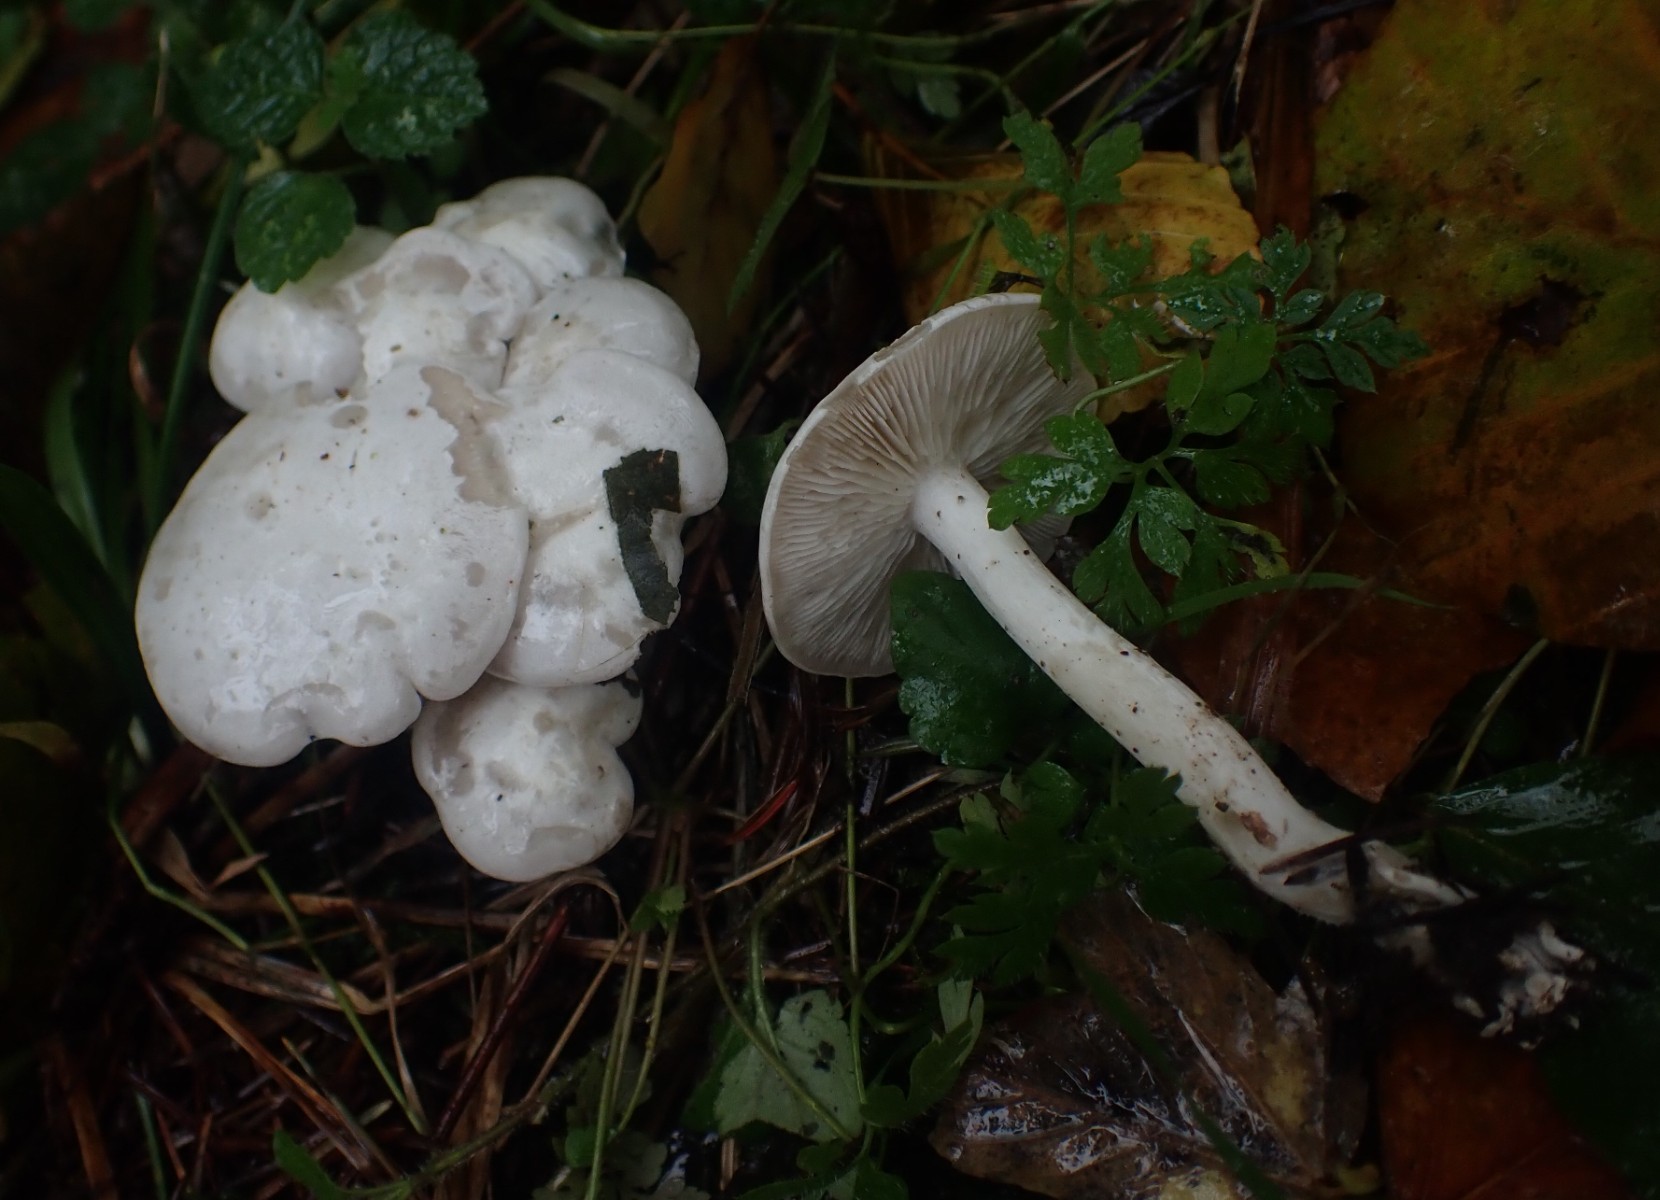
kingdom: Fungi
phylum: Basidiomycota
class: Agaricomycetes
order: Agaricales
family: Tricholomataceae
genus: Leucocybe
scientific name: Leucocybe connata
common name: knippe-tragthat
